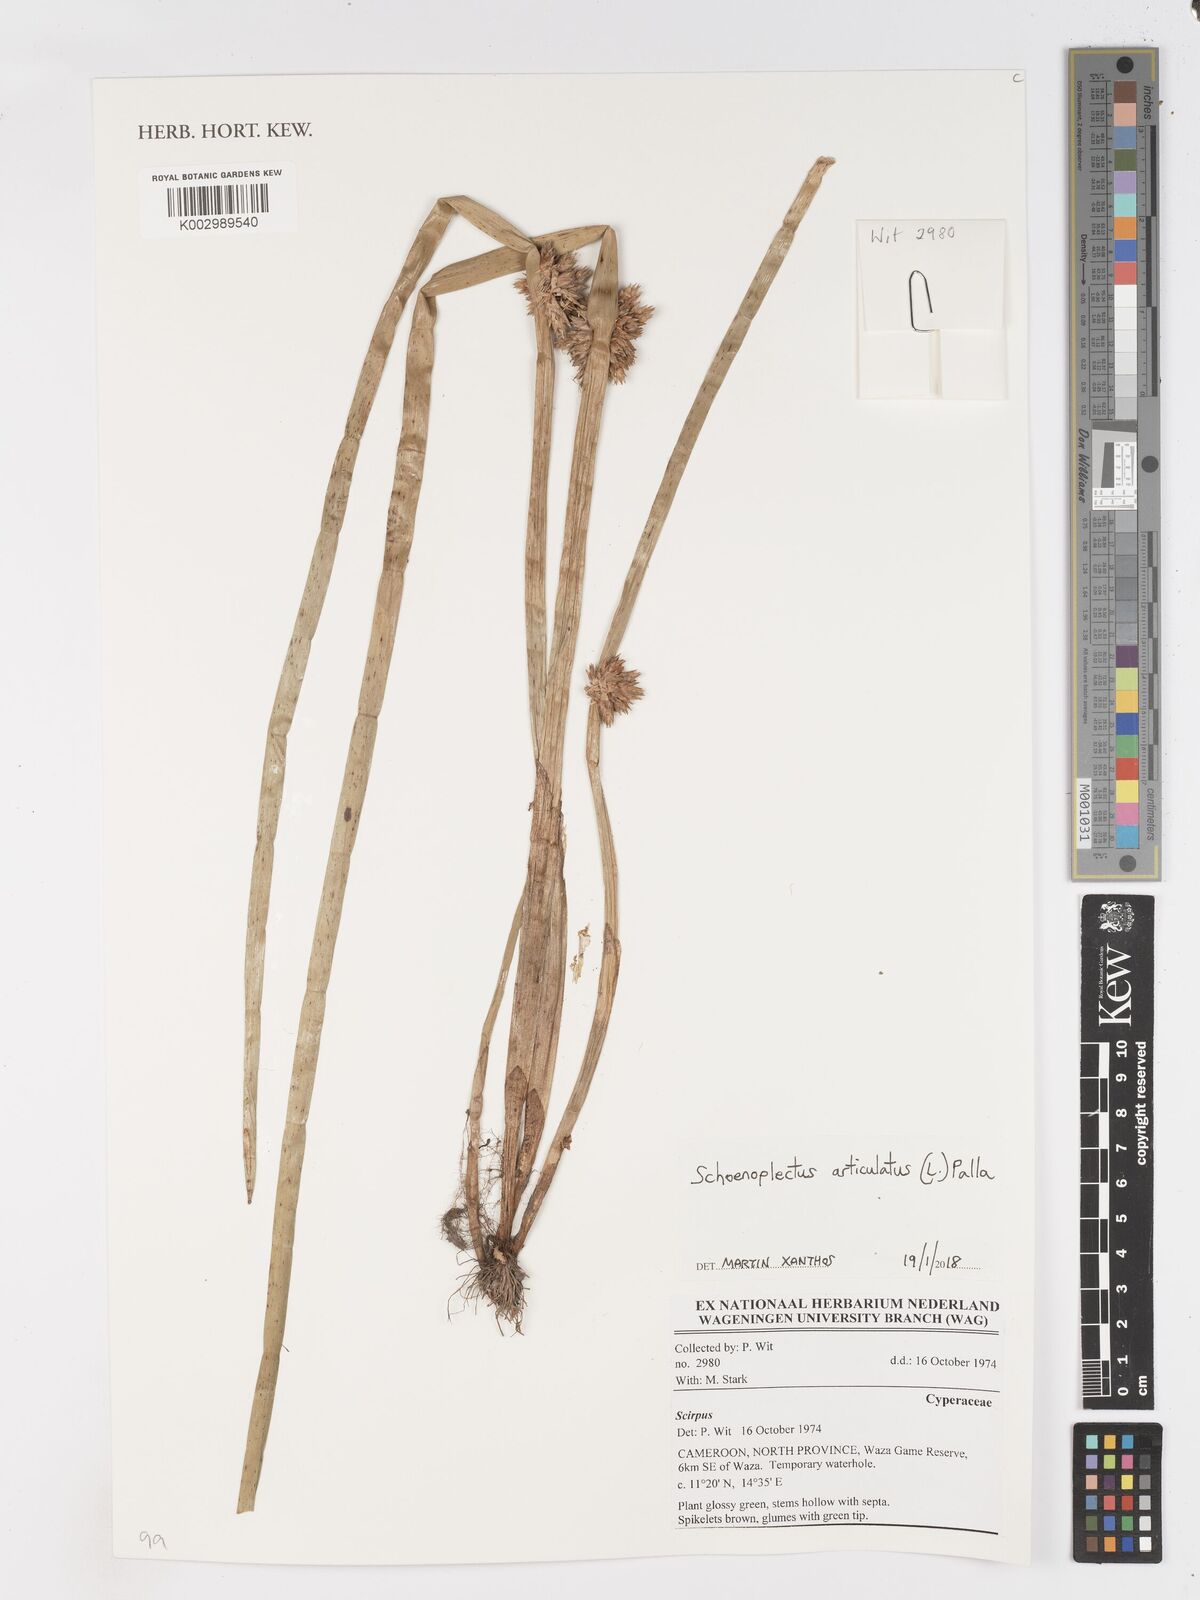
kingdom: Plantae
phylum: Tracheophyta
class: Liliopsida
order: Poales
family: Cyperaceae
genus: Schoenoplectiella
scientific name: Schoenoplectiella articulata
